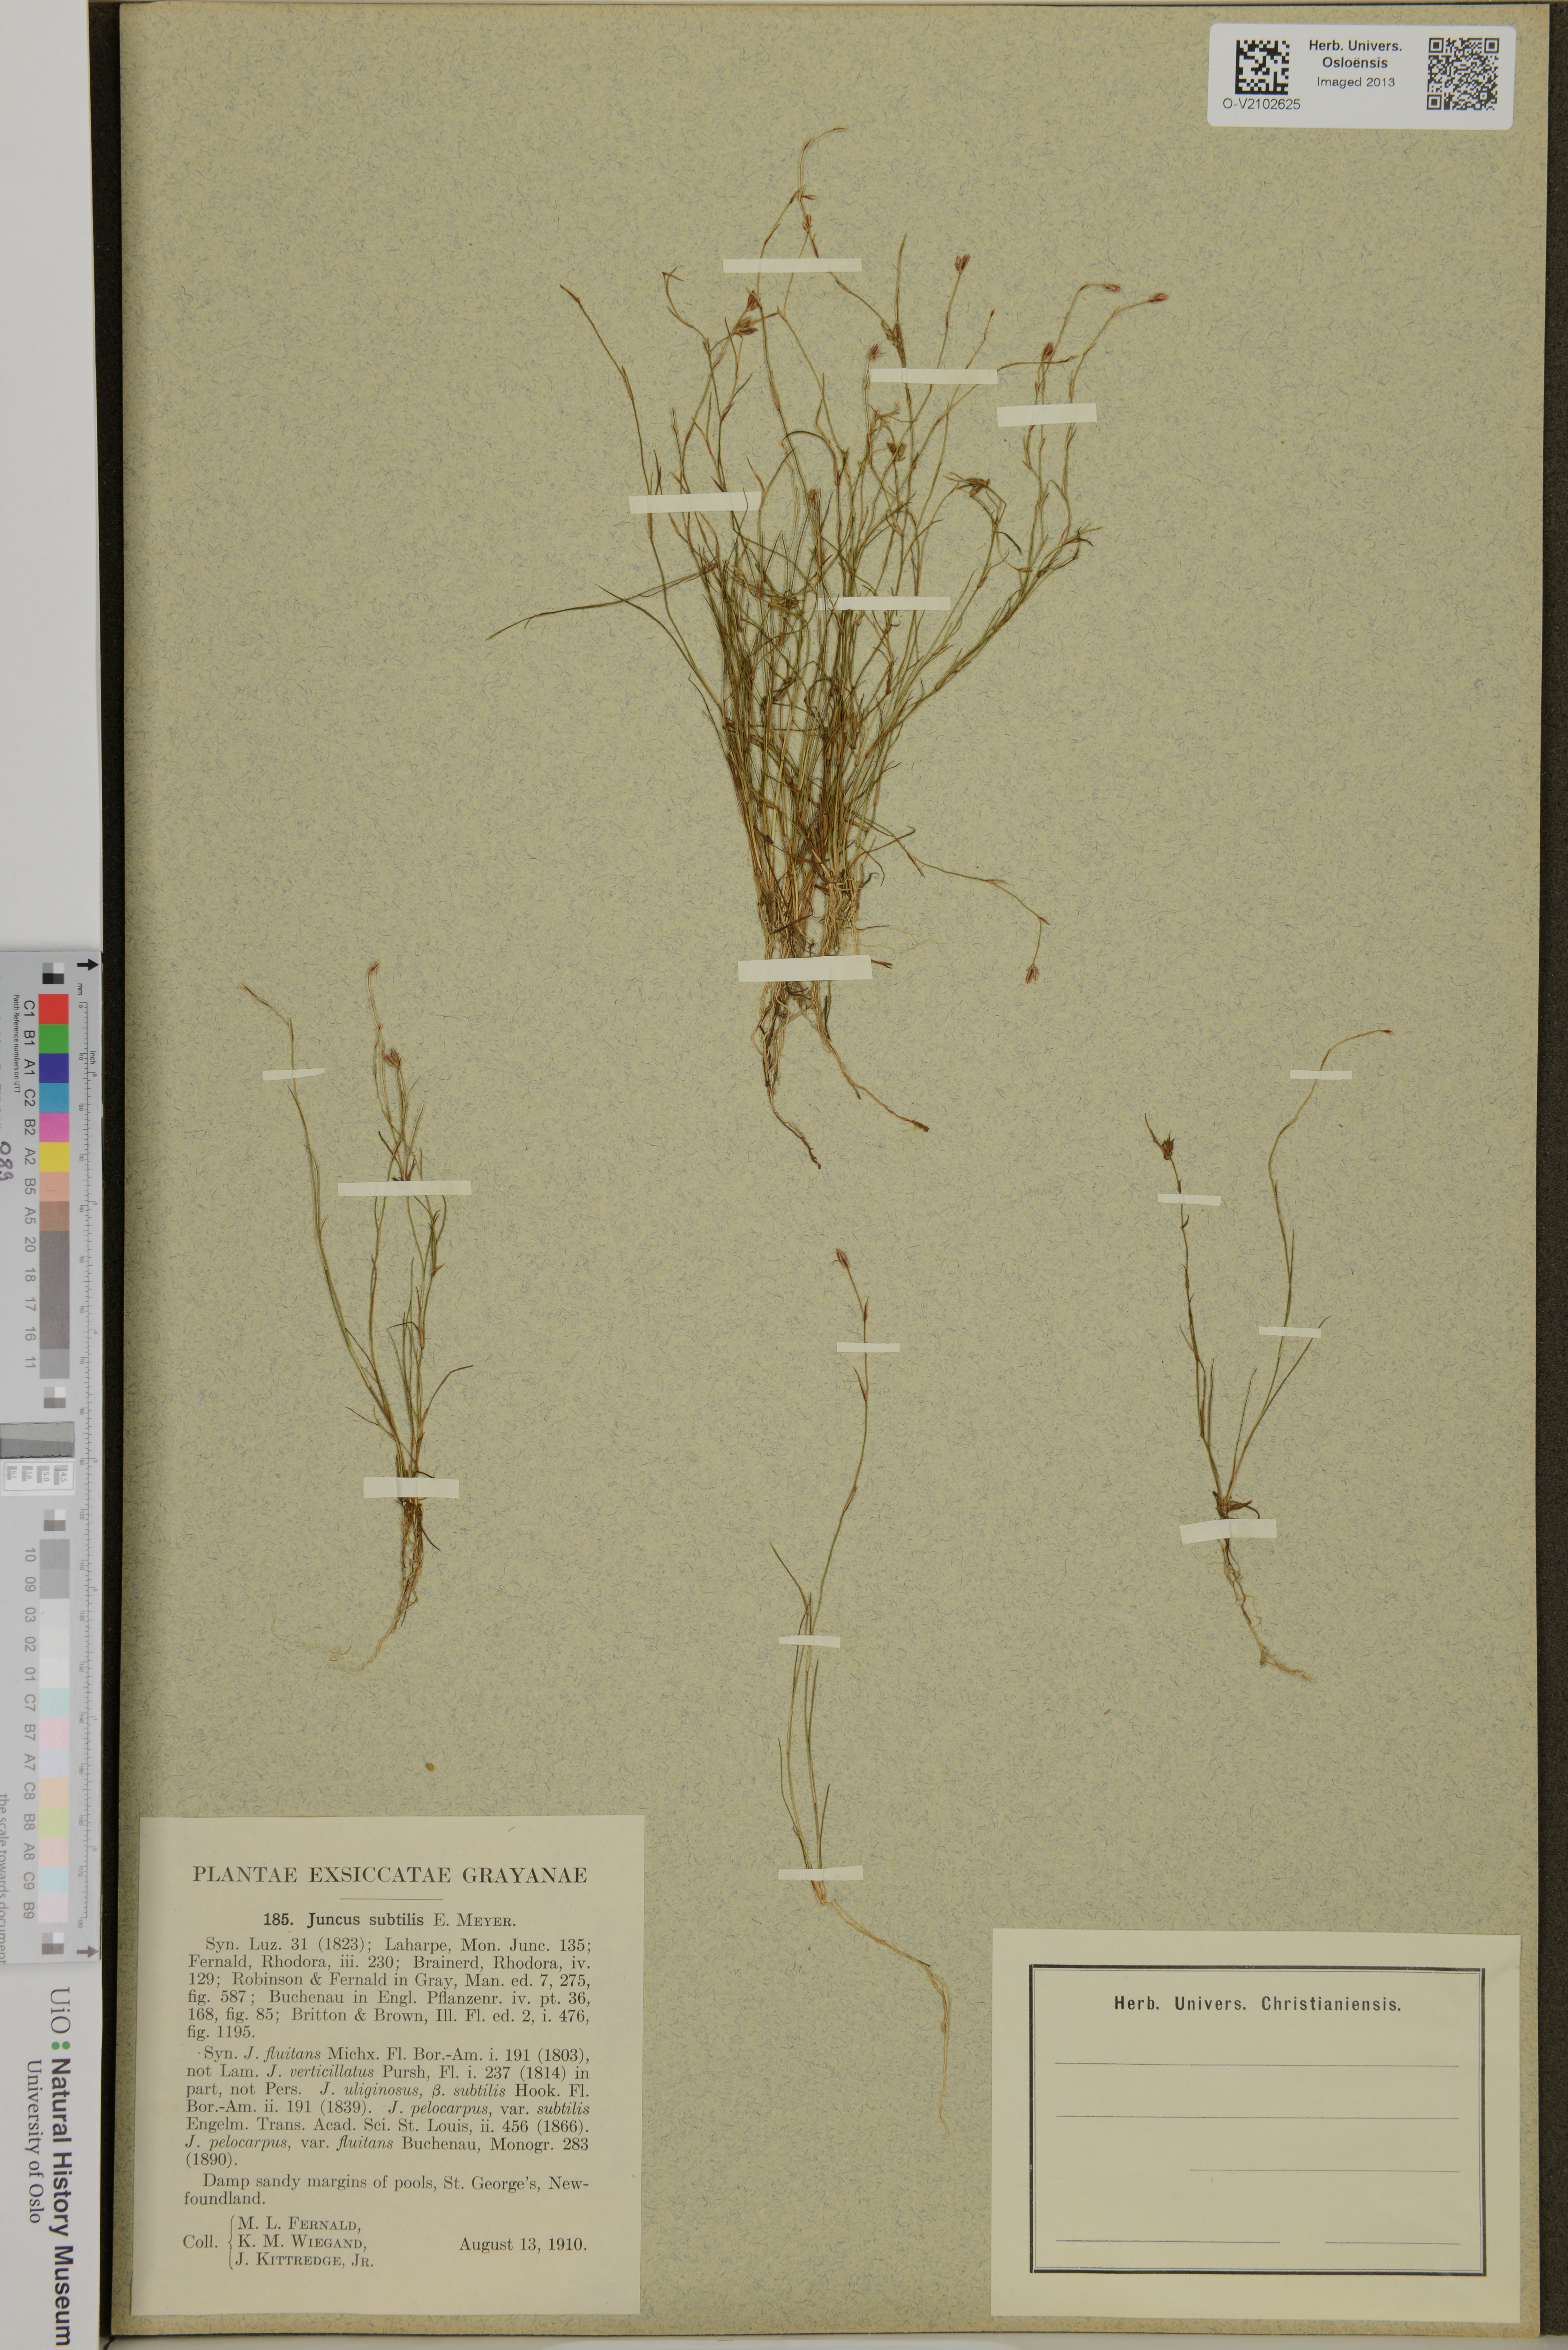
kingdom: Plantae
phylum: Tracheophyta
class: Liliopsida
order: Poales
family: Juncaceae
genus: Juncus
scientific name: Juncus subtilis
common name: Creeping rush
